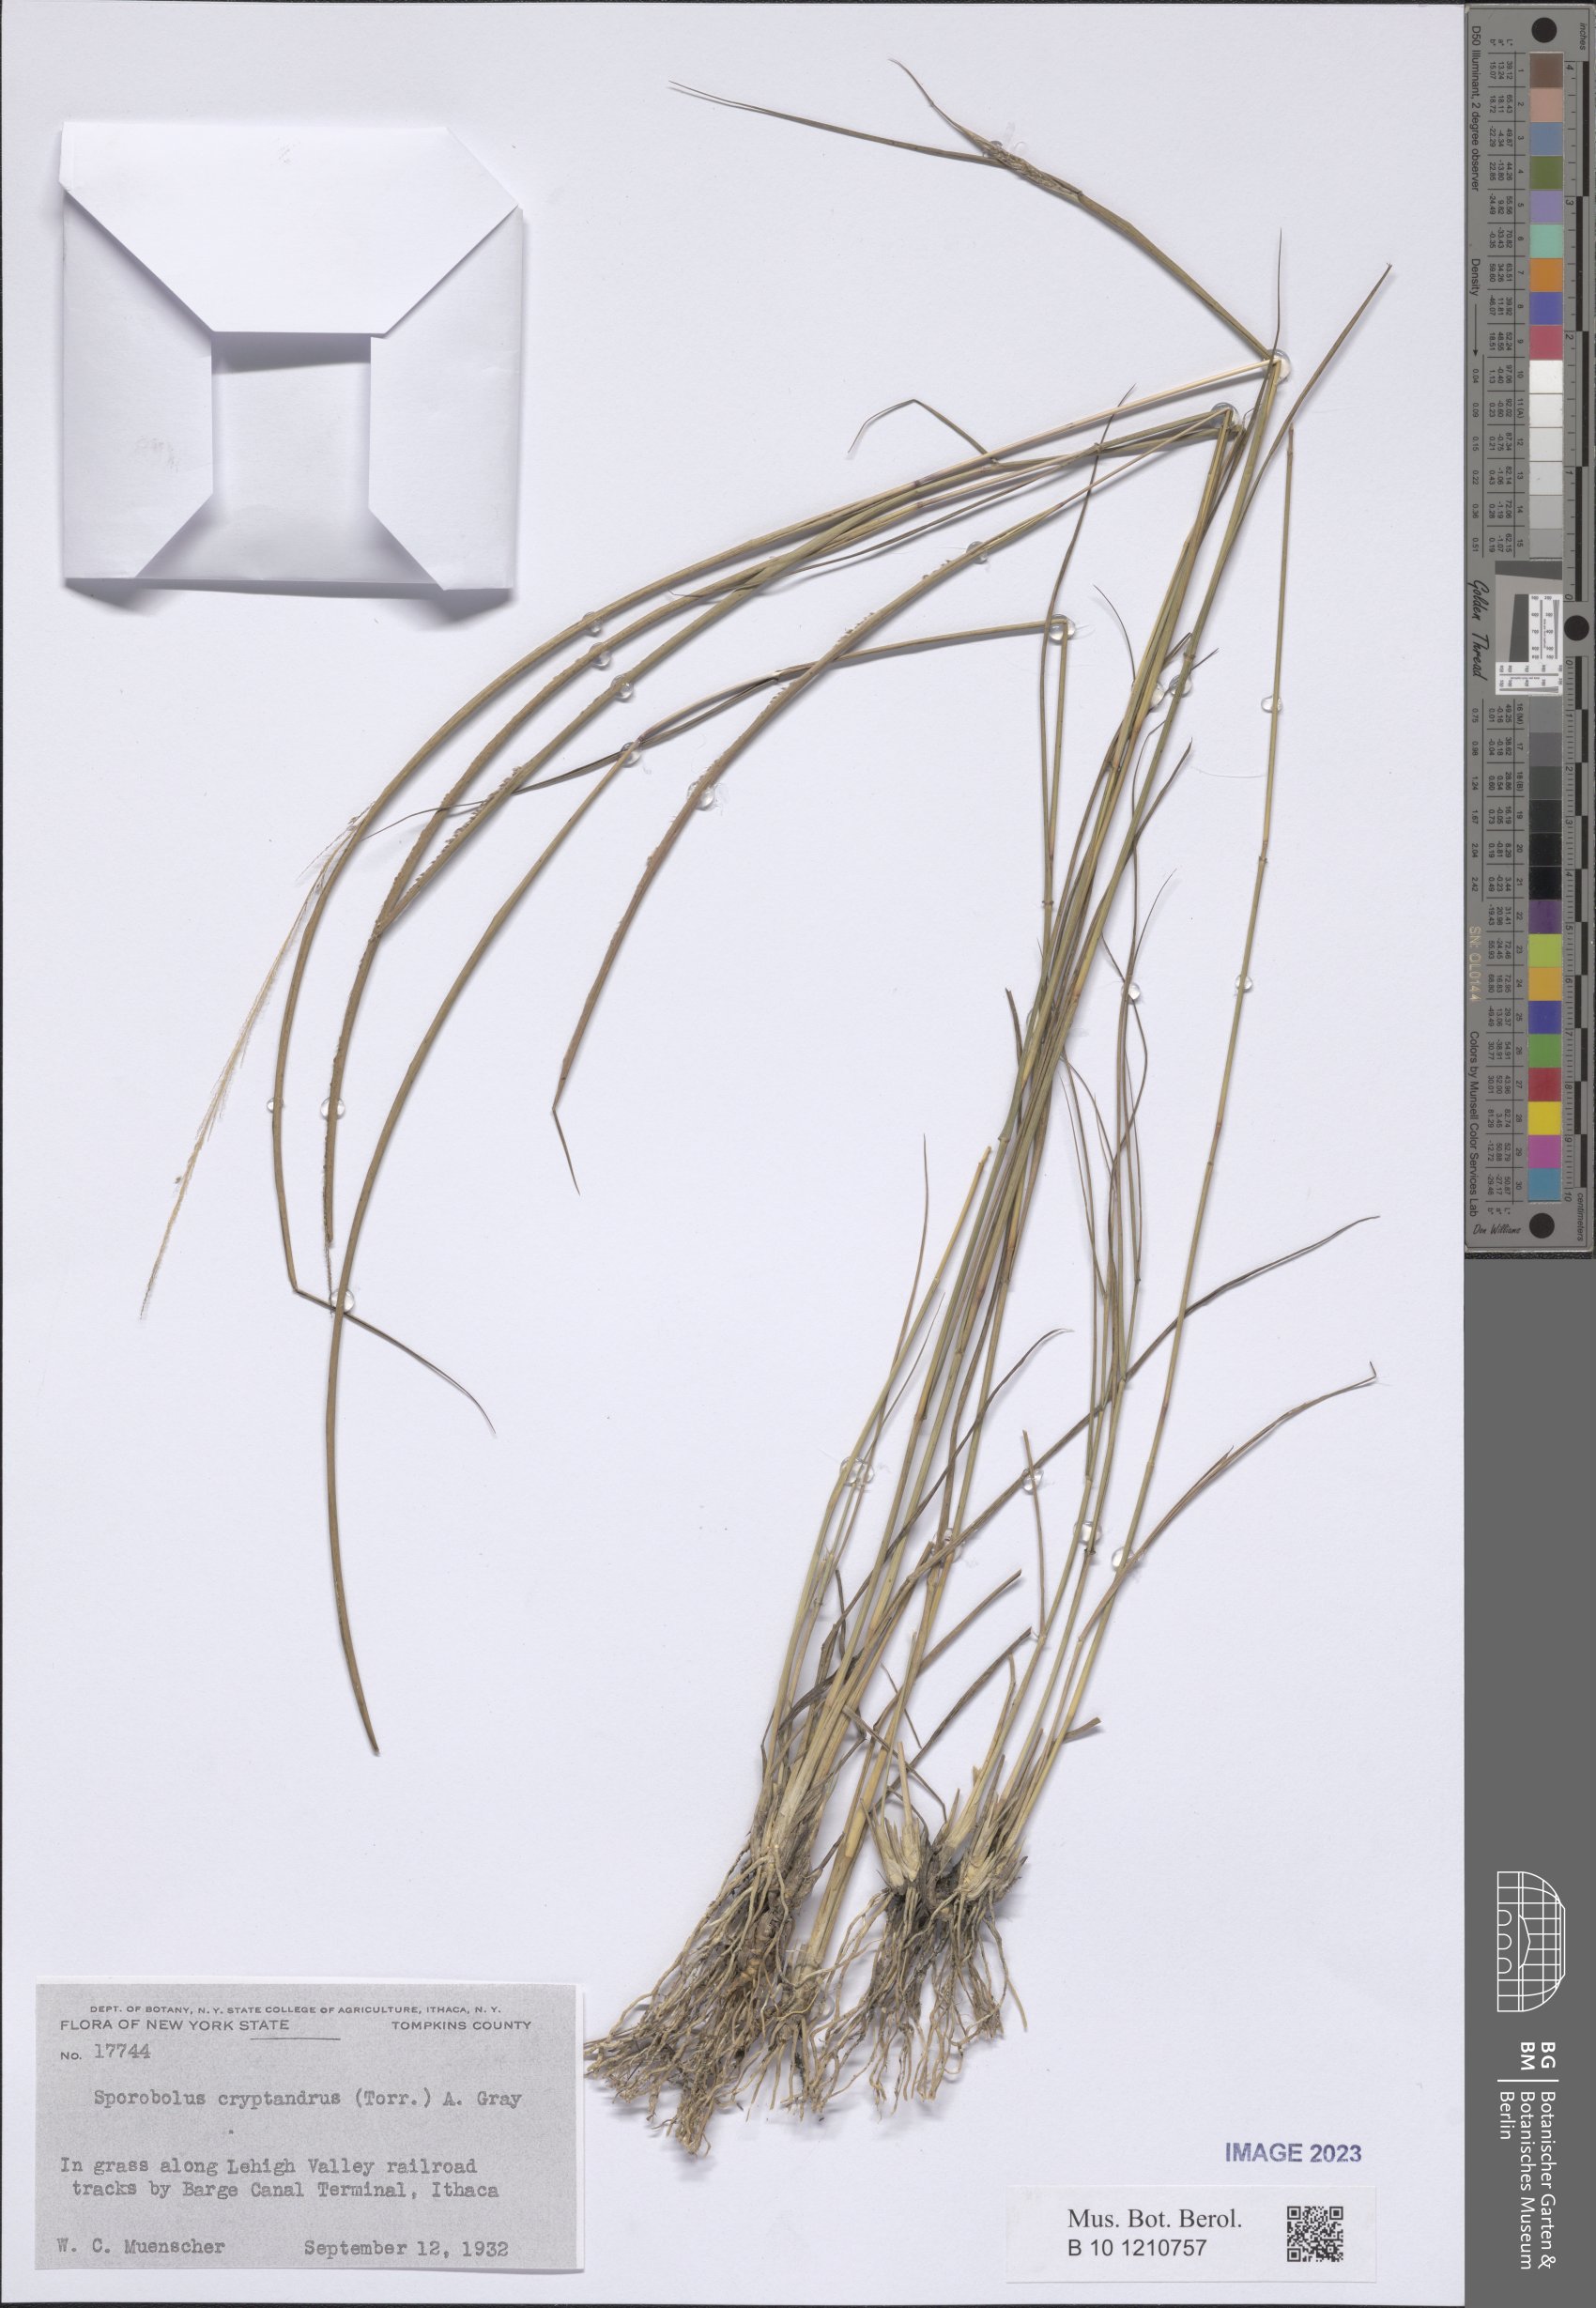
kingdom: Plantae
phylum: Tracheophyta
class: Liliopsida
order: Poales
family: Poaceae
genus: Sporobolus
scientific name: Sporobolus cryptandrus
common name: Sand dropseed
